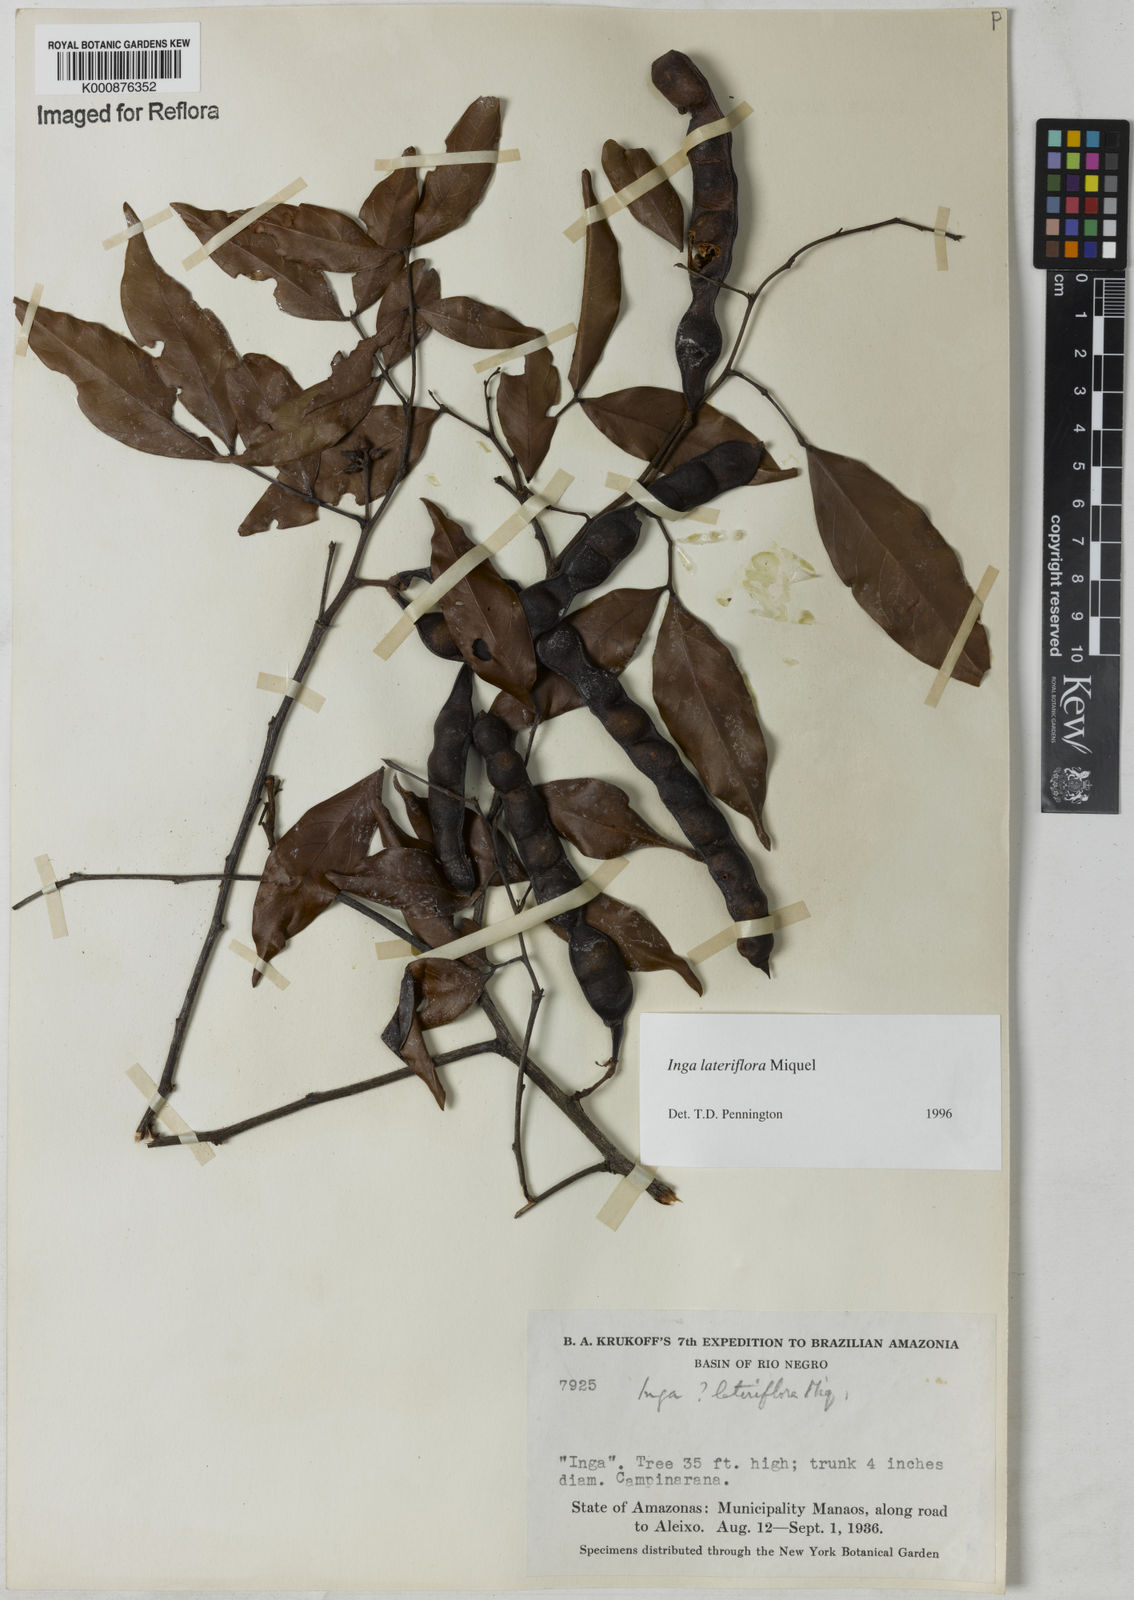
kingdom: Plantae
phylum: Tracheophyta
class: Magnoliopsida
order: Fabales
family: Fabaceae
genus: Inga
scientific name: Inga lateriflora
